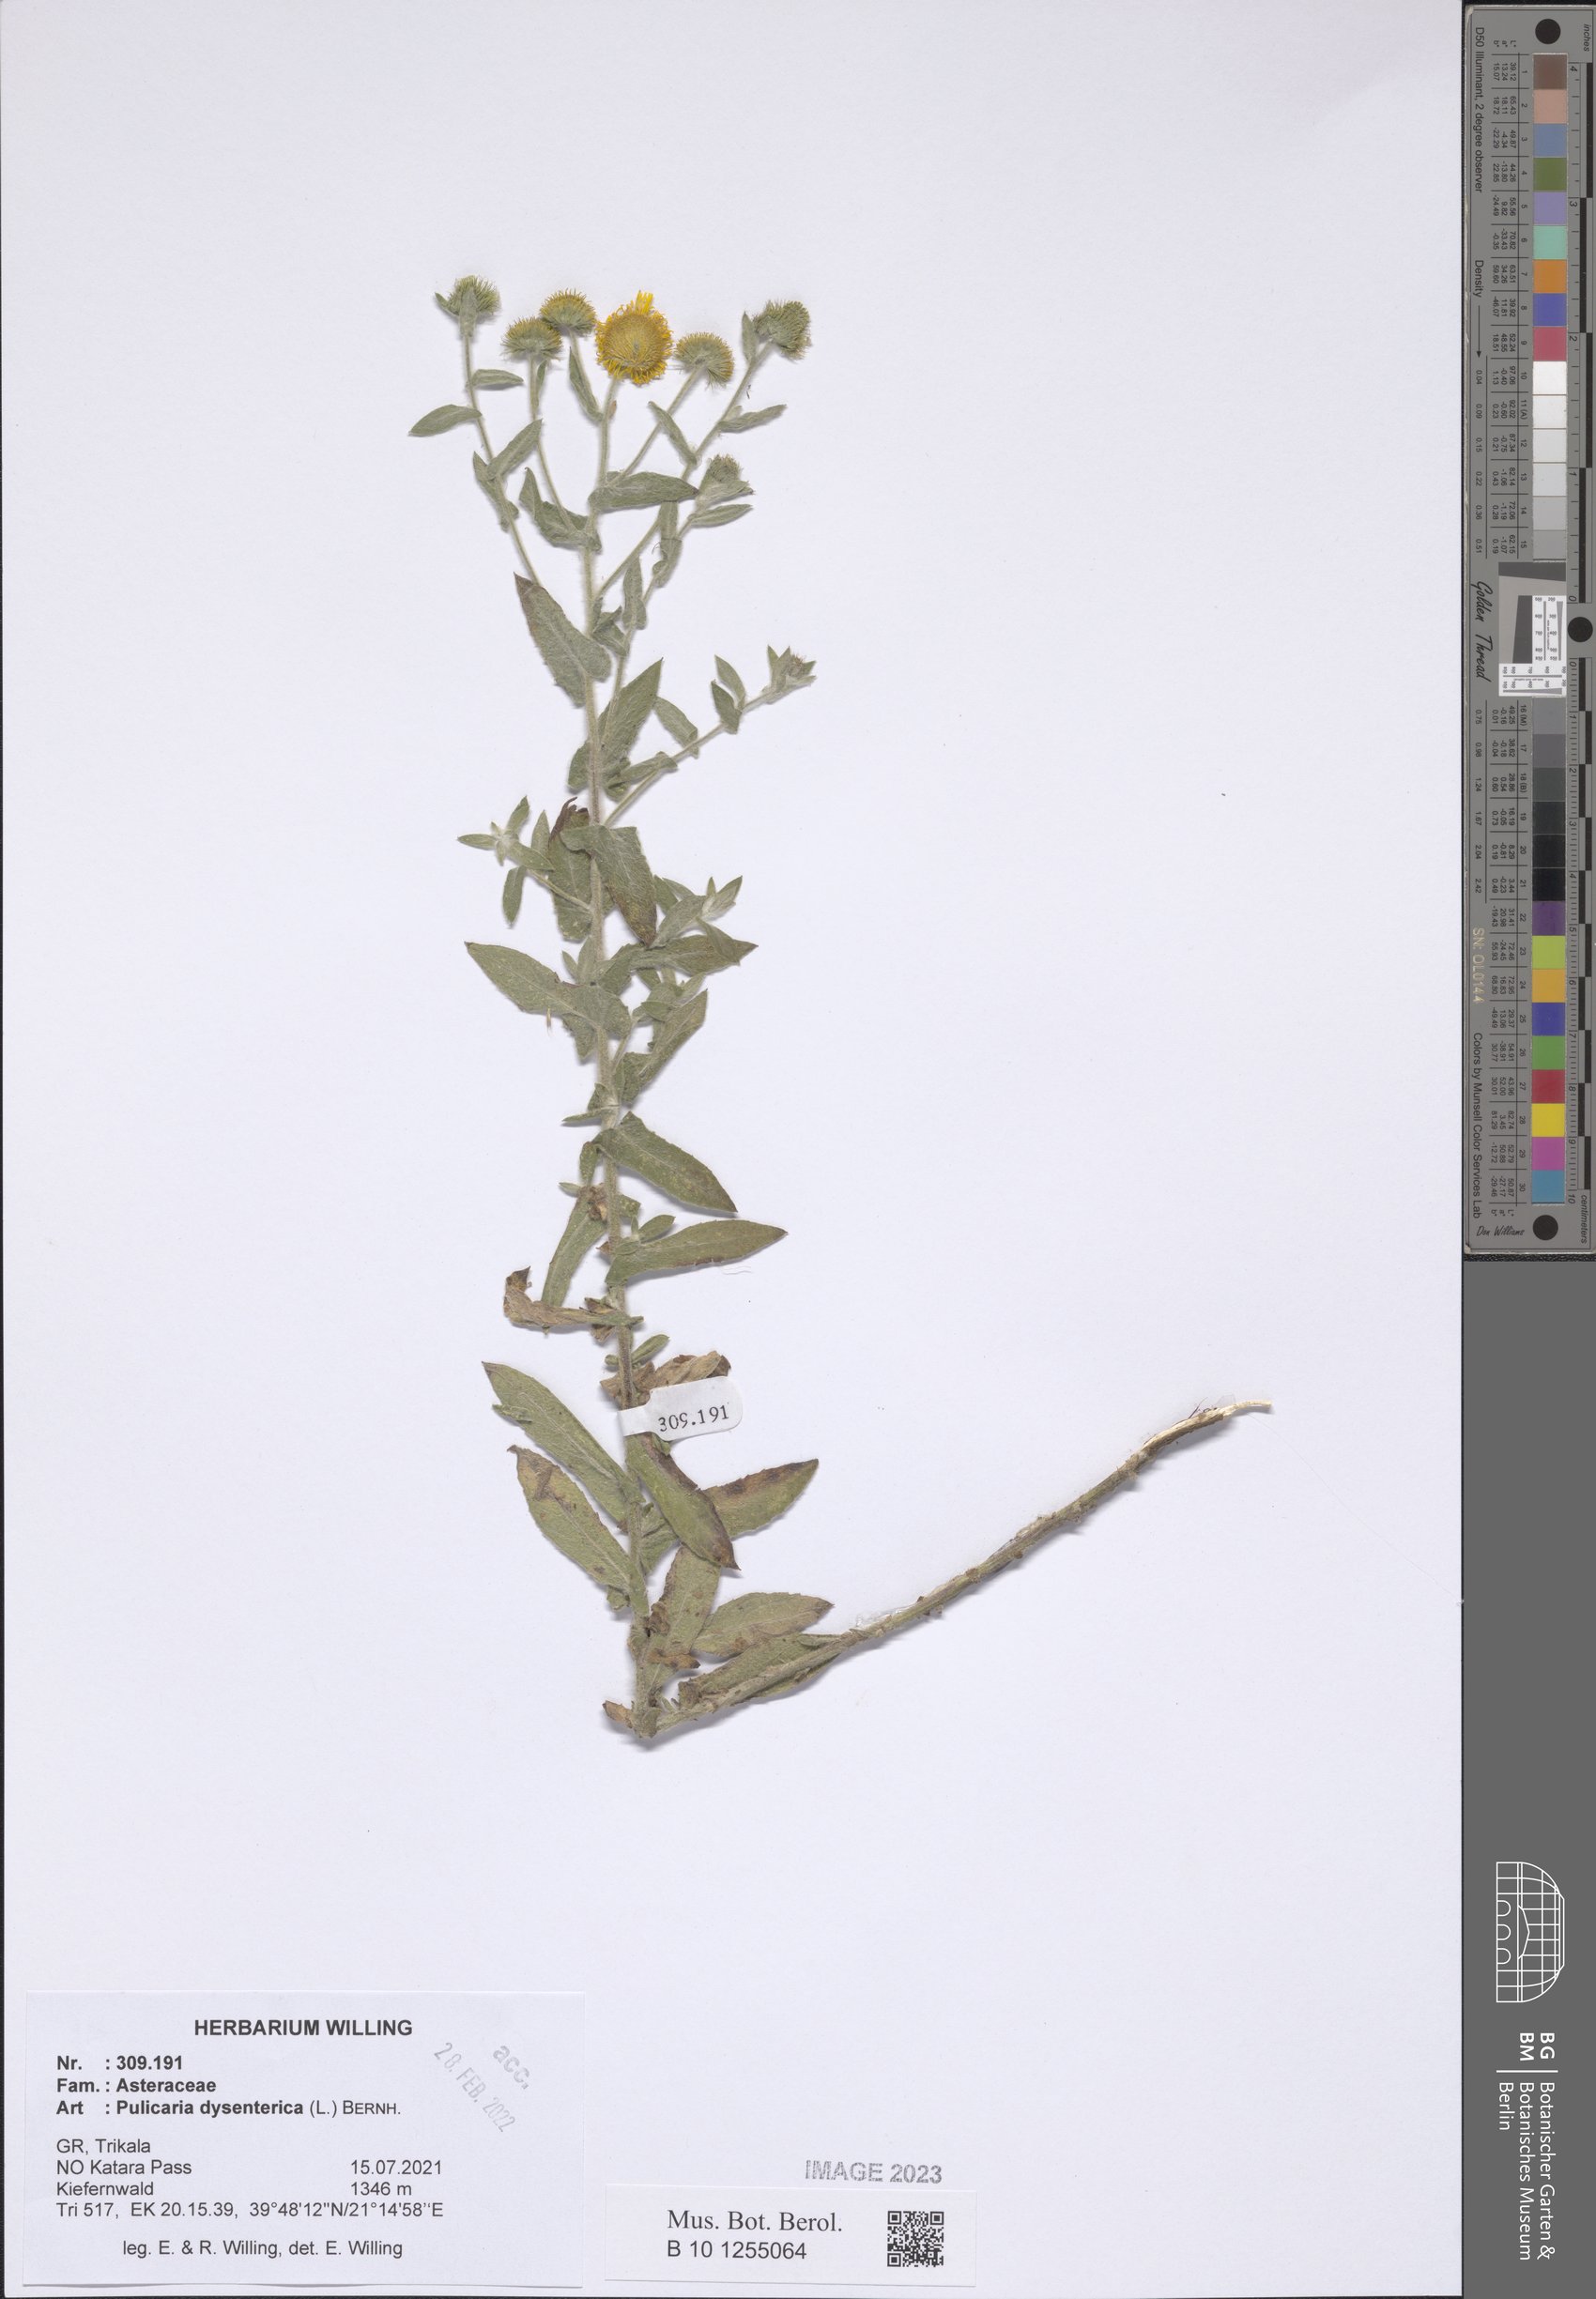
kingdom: Plantae
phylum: Tracheophyta
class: Magnoliopsida
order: Asterales
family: Asteraceae
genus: Pulicaria
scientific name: Pulicaria dysenterica
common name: Common fleabane
